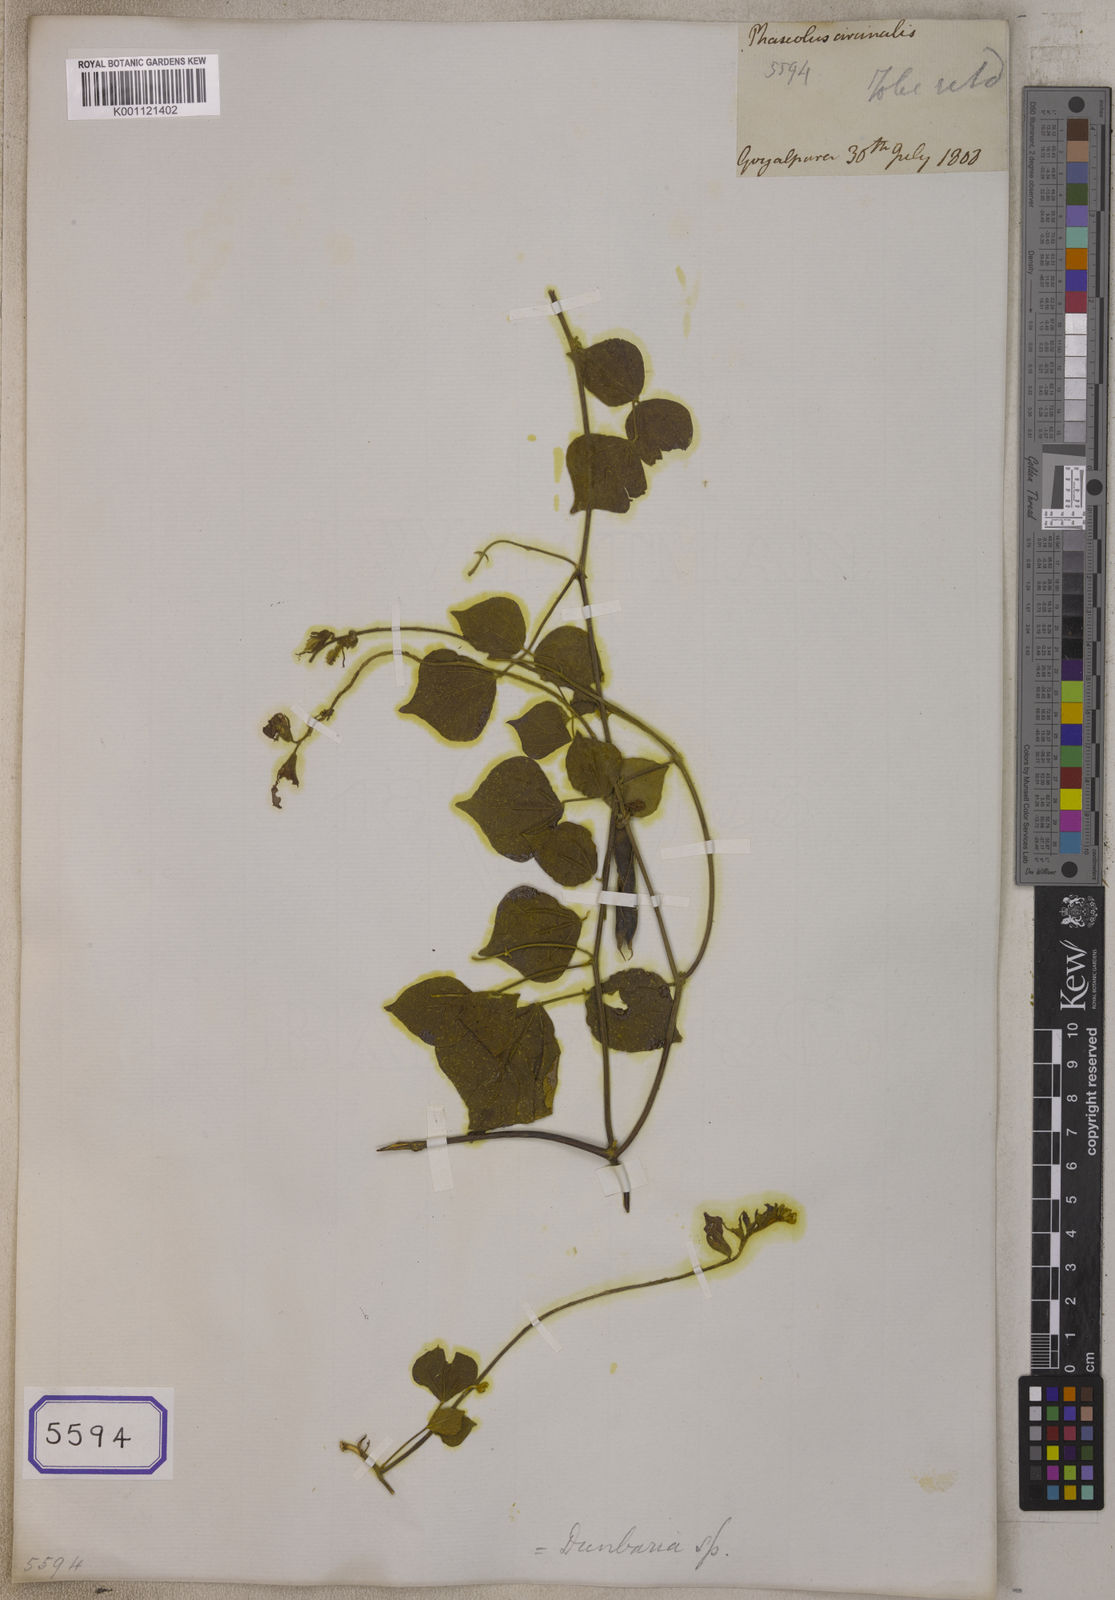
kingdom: Plantae
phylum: Tracheophyta
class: Magnoliopsida
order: Fabales
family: Fabaceae
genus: Dunbaria
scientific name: Dunbaria circinalis
